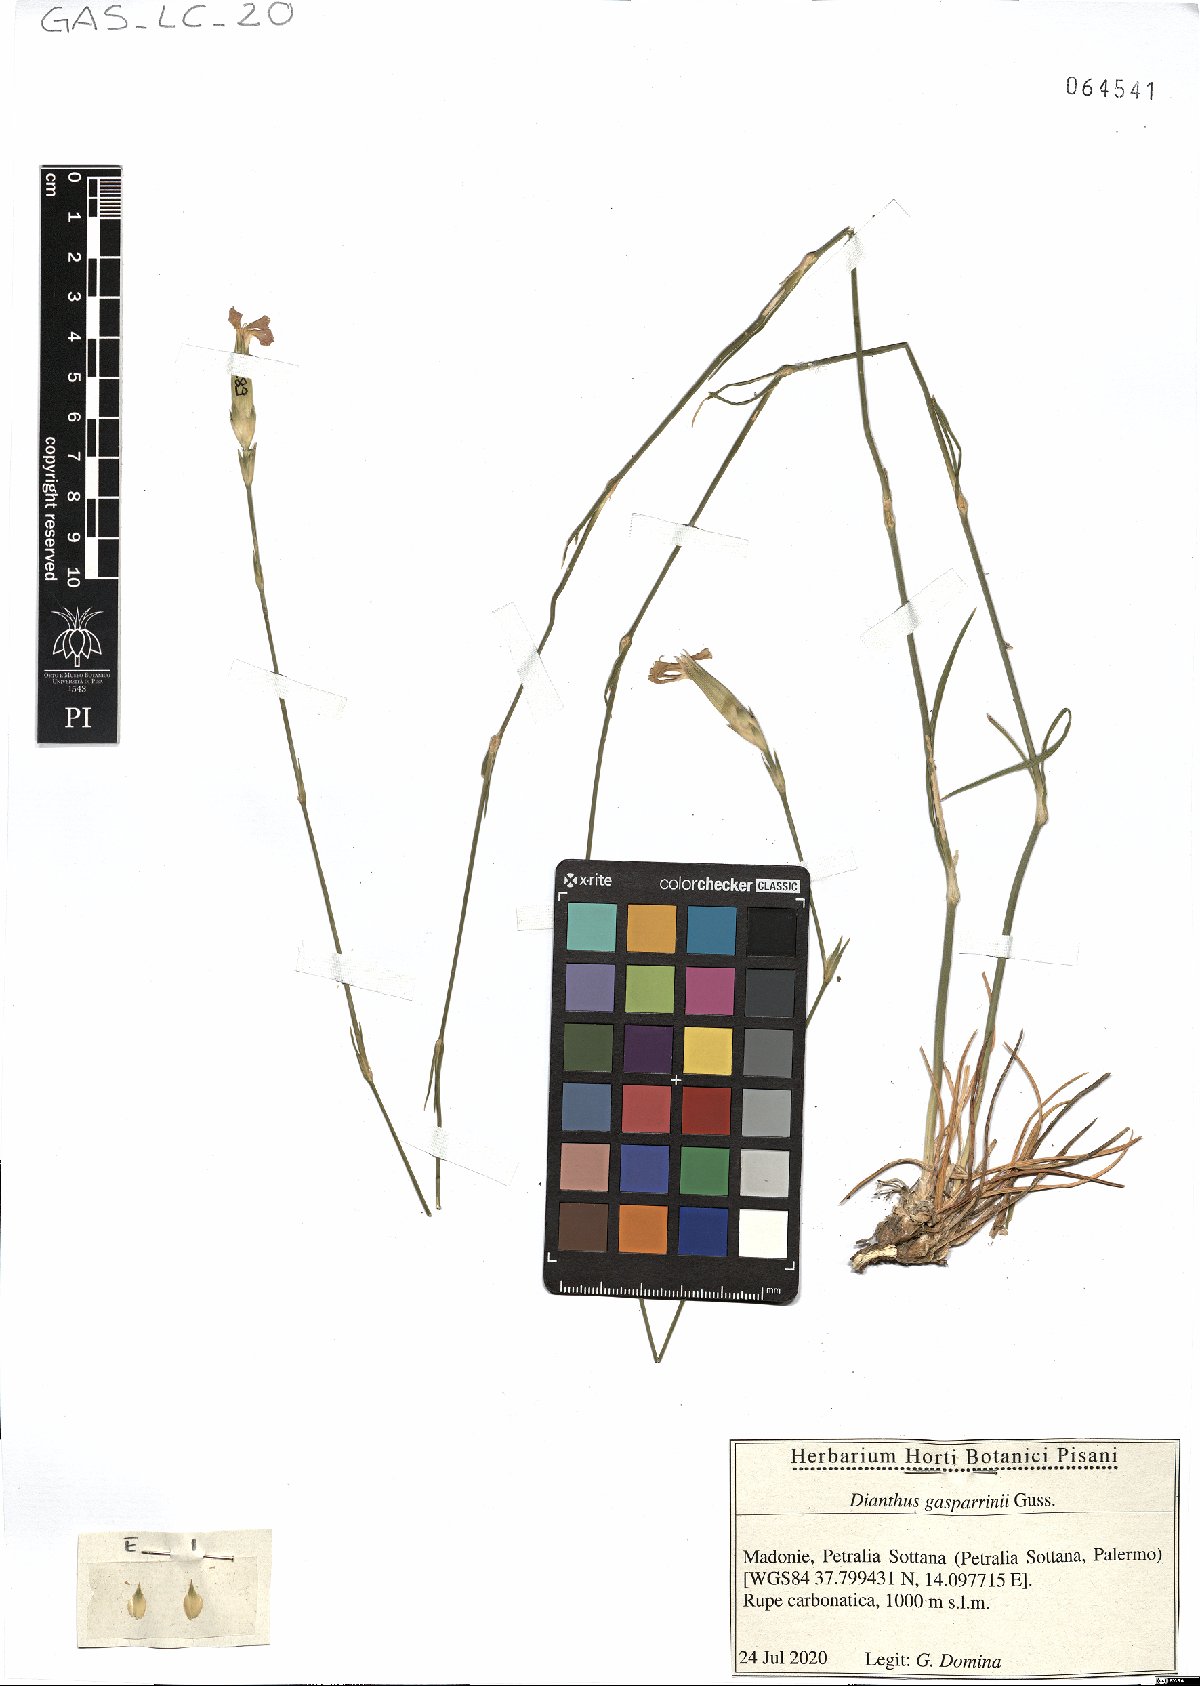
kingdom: Plantae
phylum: Tracheophyta
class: Magnoliopsida
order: Caryophyllales
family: Caryophyllaceae
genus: Dianthus
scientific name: Dianthus gasparrinii
